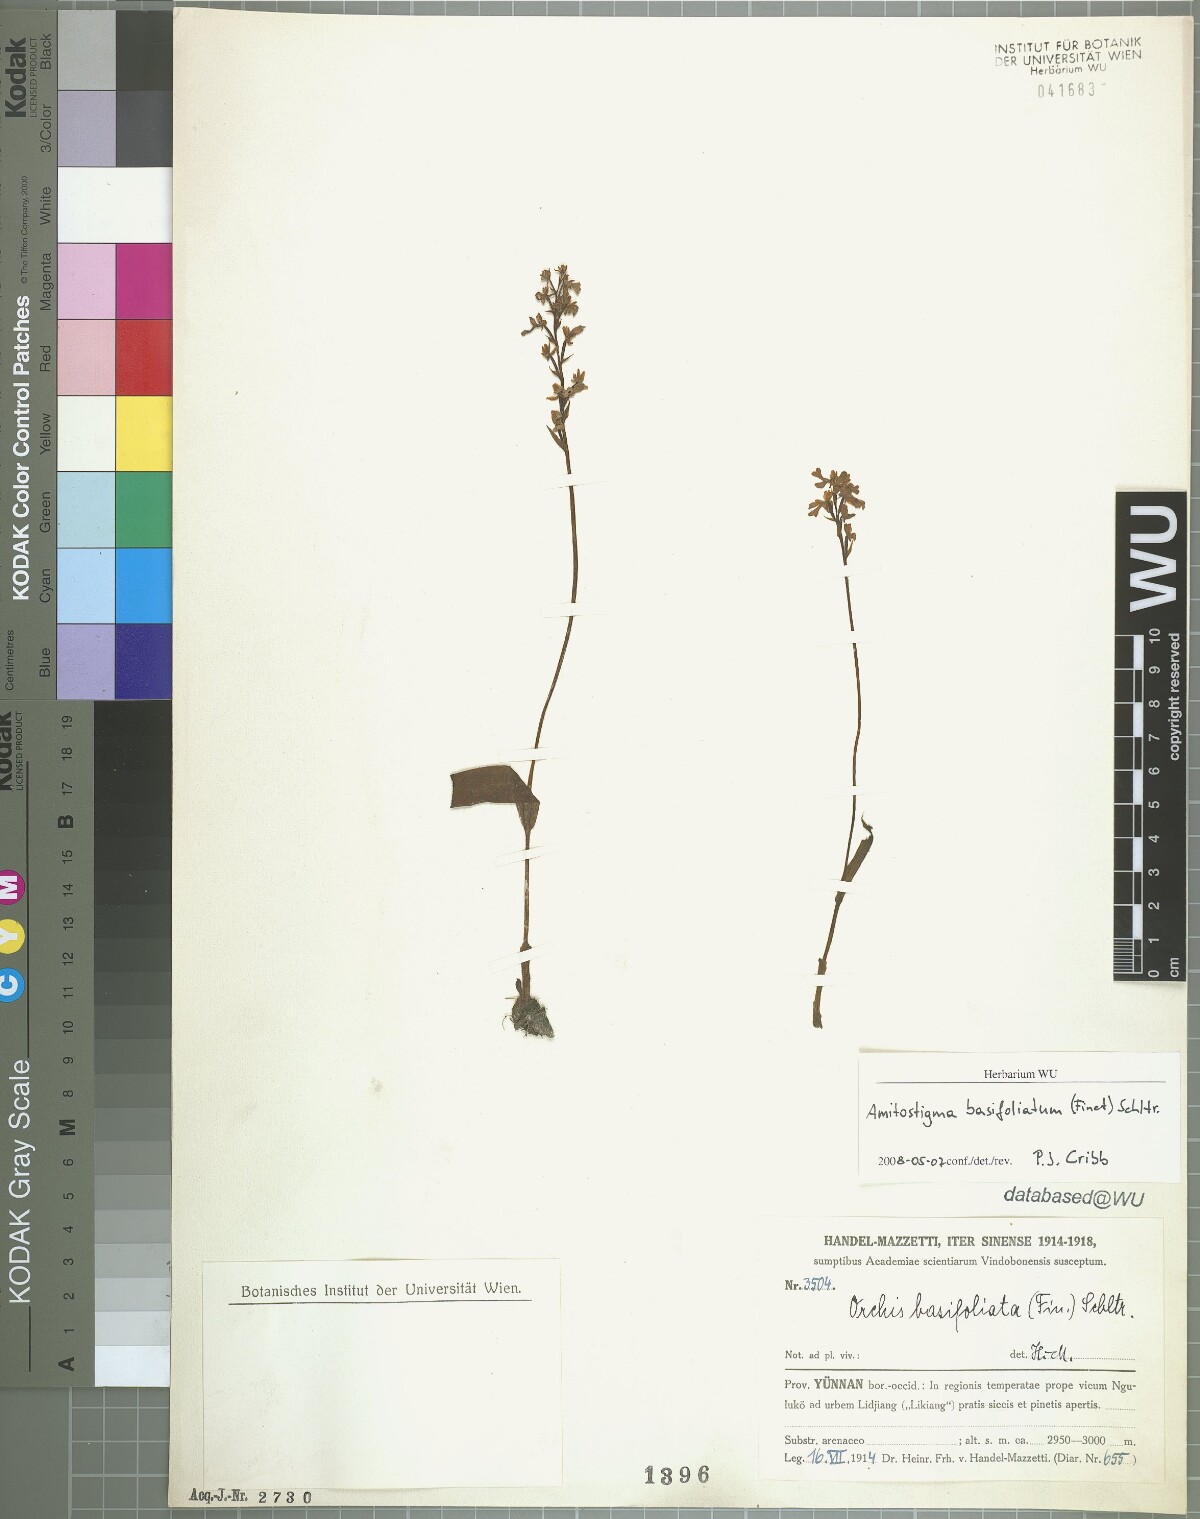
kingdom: Plantae
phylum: Tracheophyta
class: Liliopsida
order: Asparagales
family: Orchidaceae
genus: Hemipilia
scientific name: Hemipilia basifoliata
